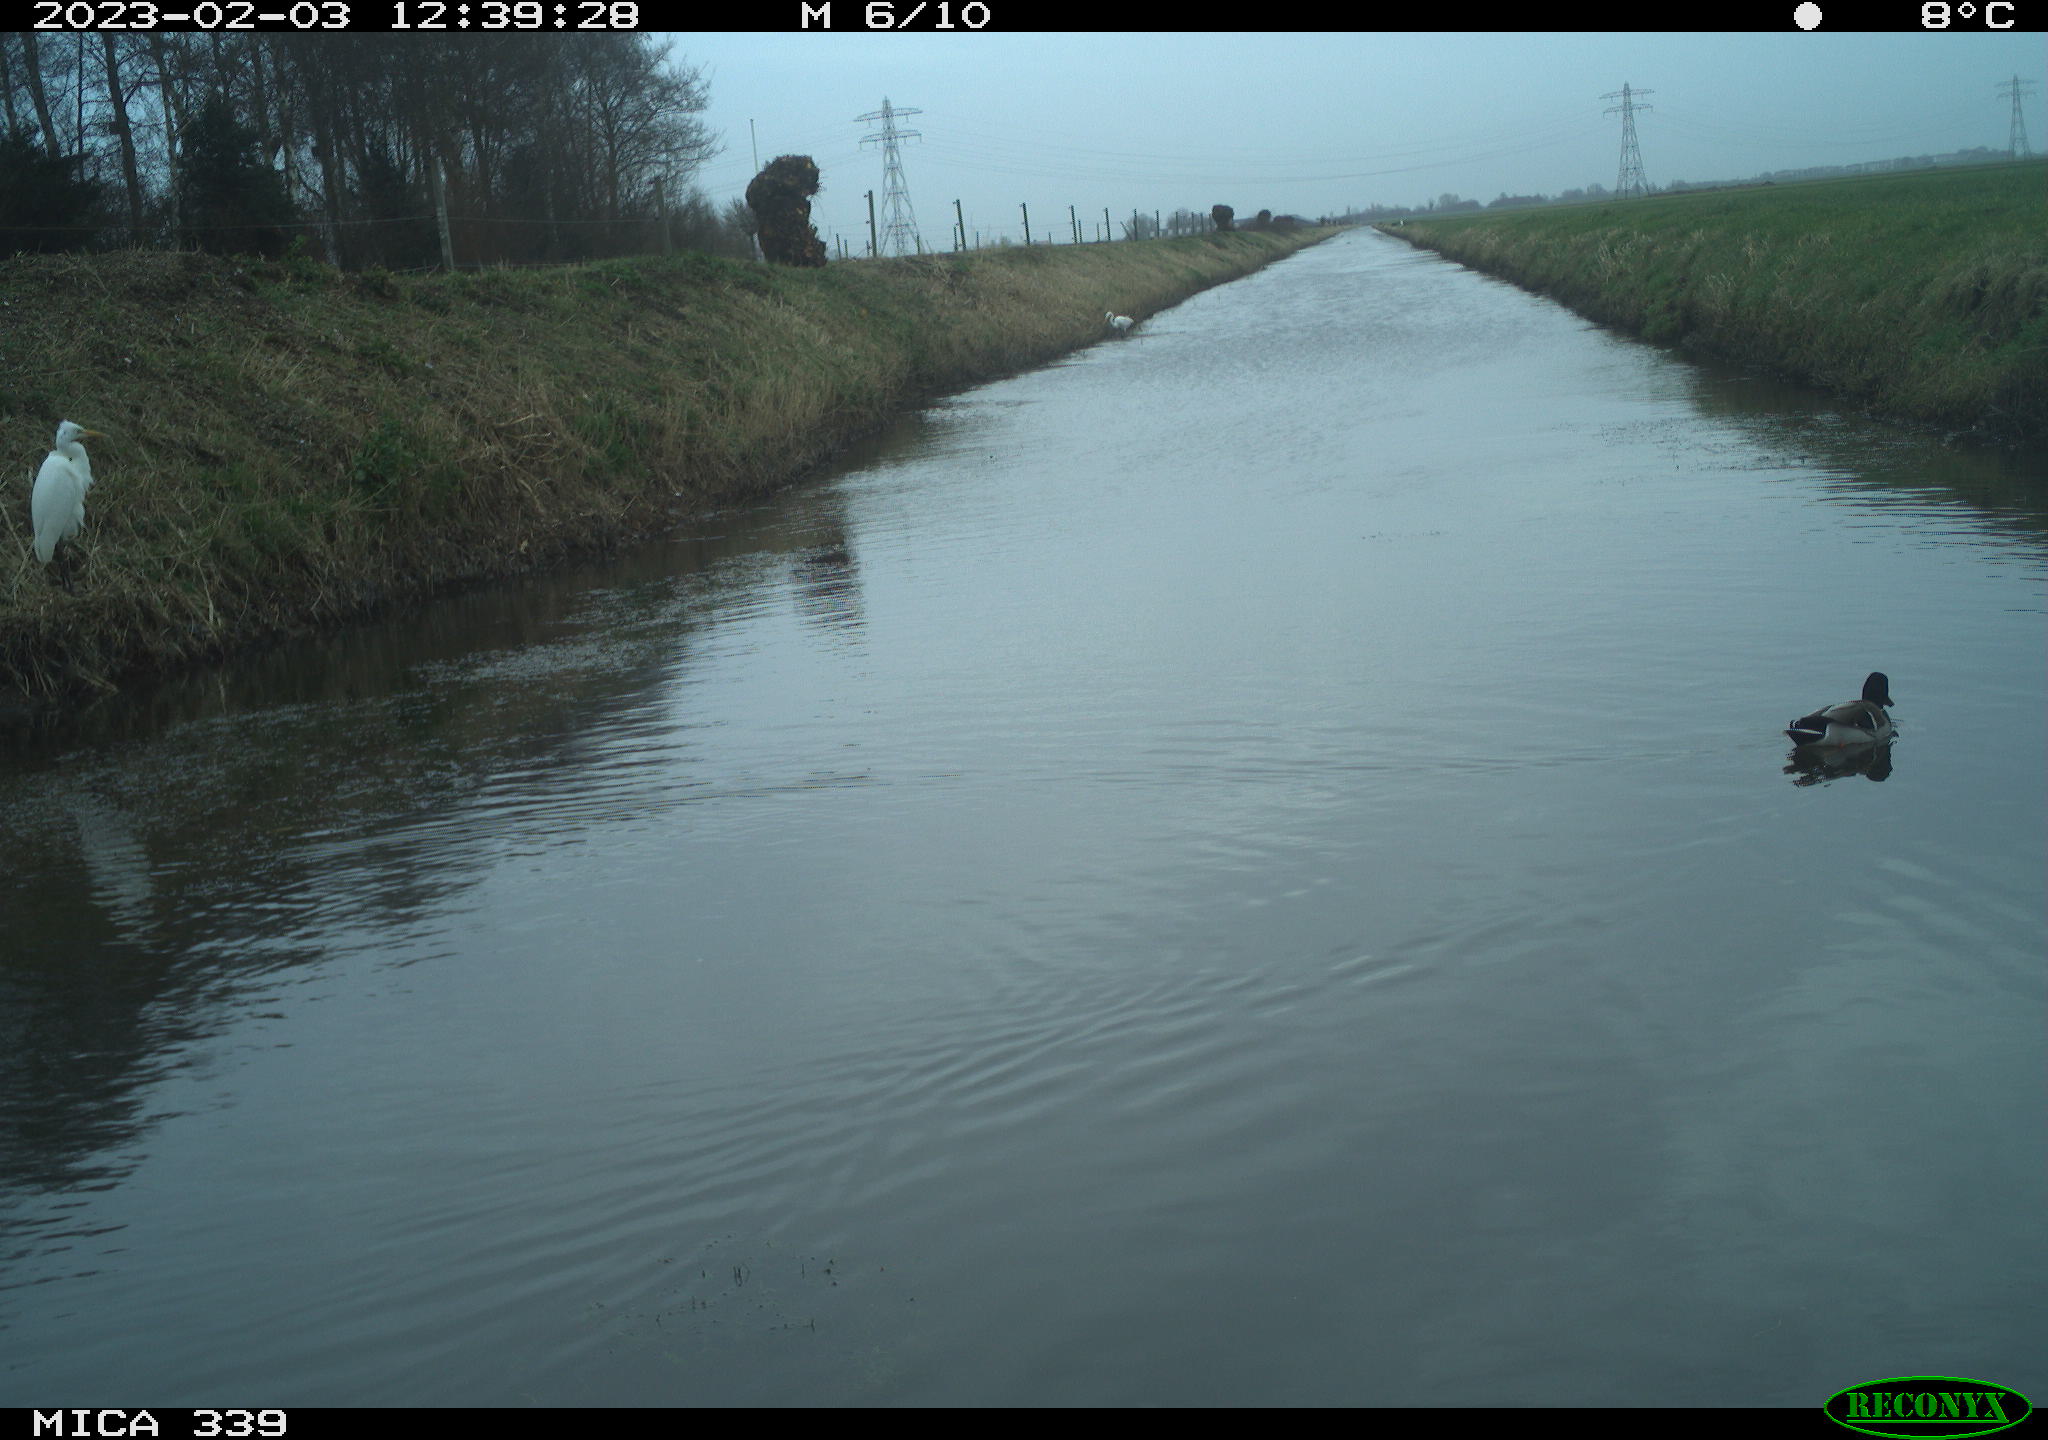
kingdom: Animalia
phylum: Chordata
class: Aves
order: Anseriformes
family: Anatidae
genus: Anas
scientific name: Anas
